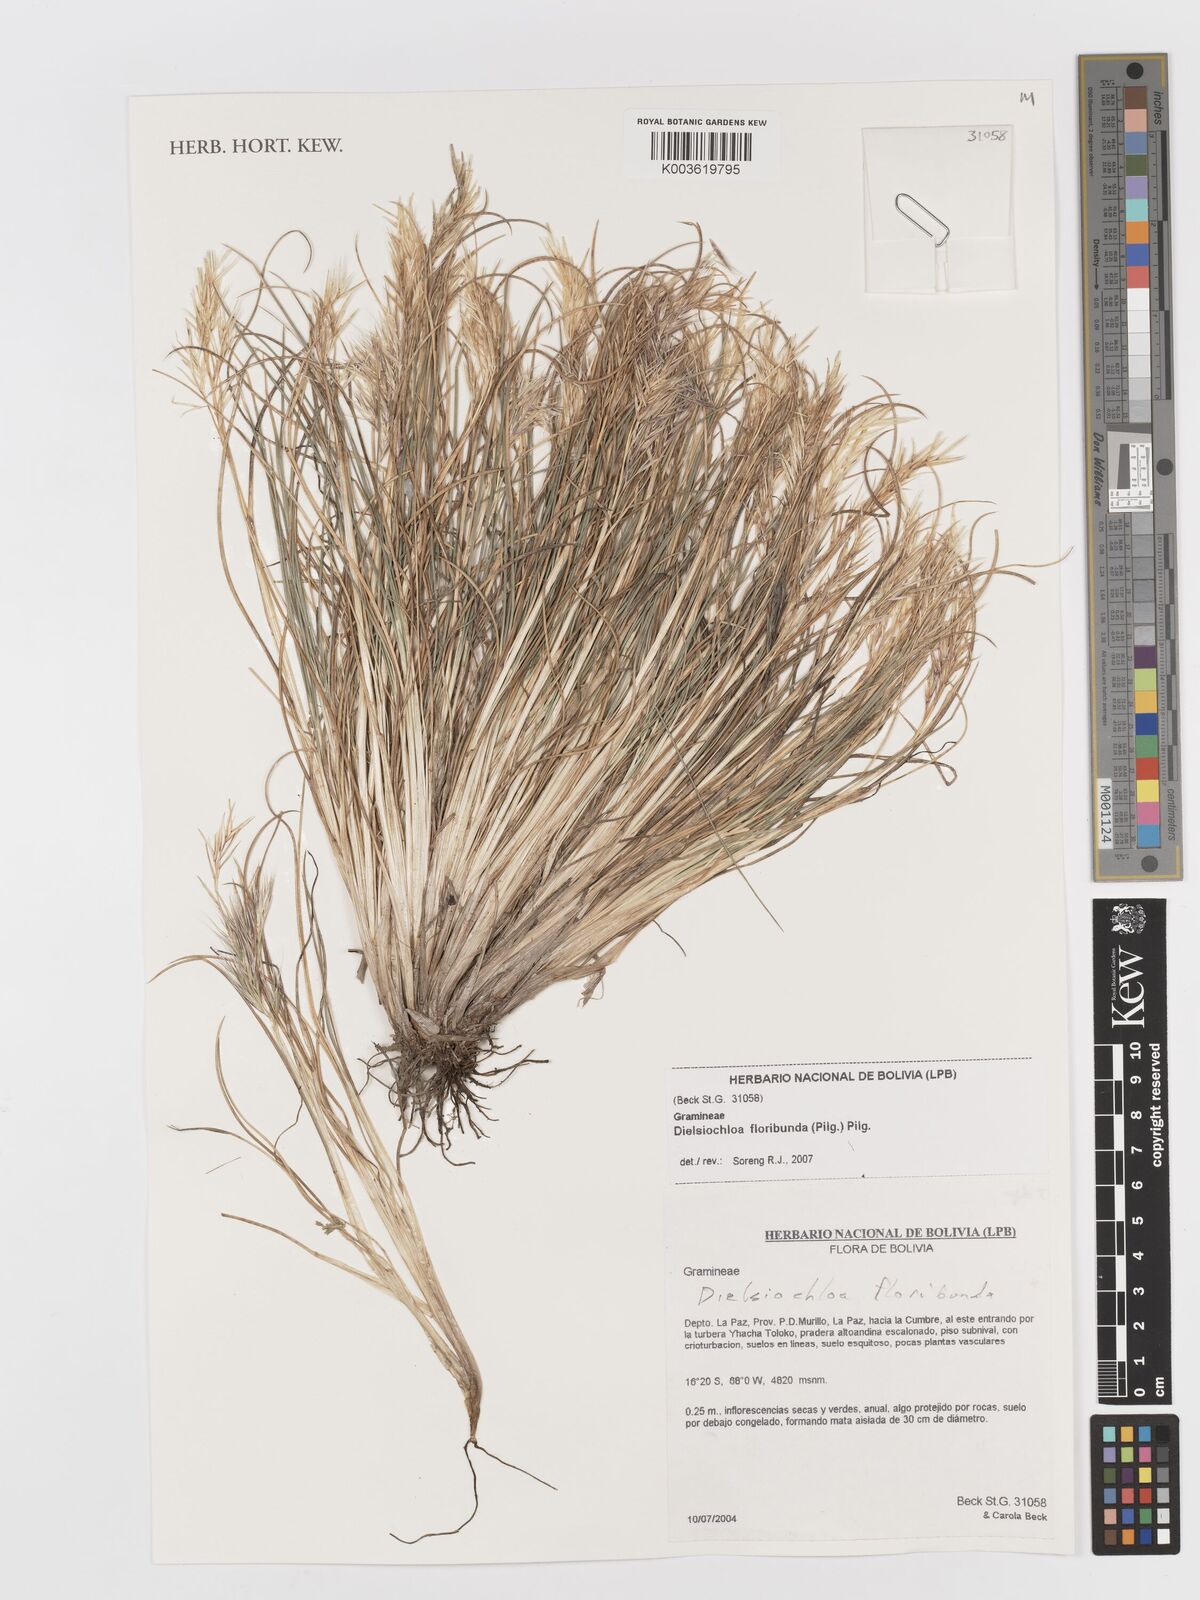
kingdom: Plantae
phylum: Tracheophyta
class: Liliopsida
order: Poales
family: Poaceae
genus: Festuca
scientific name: Festuca floribunda
